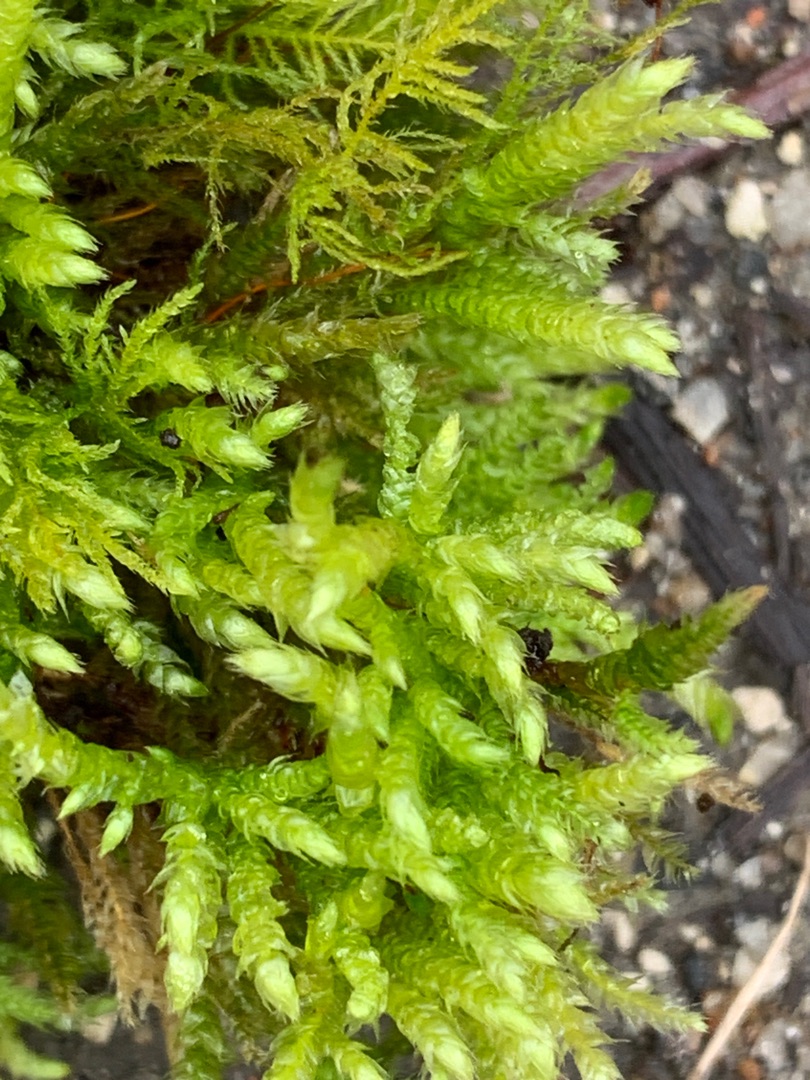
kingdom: Plantae
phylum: Bryophyta
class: Bryopsida
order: Hypnales
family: Brachytheciaceae
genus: Brachythecium
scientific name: Brachythecium rutabulum
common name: Almindelig kortkapsel
